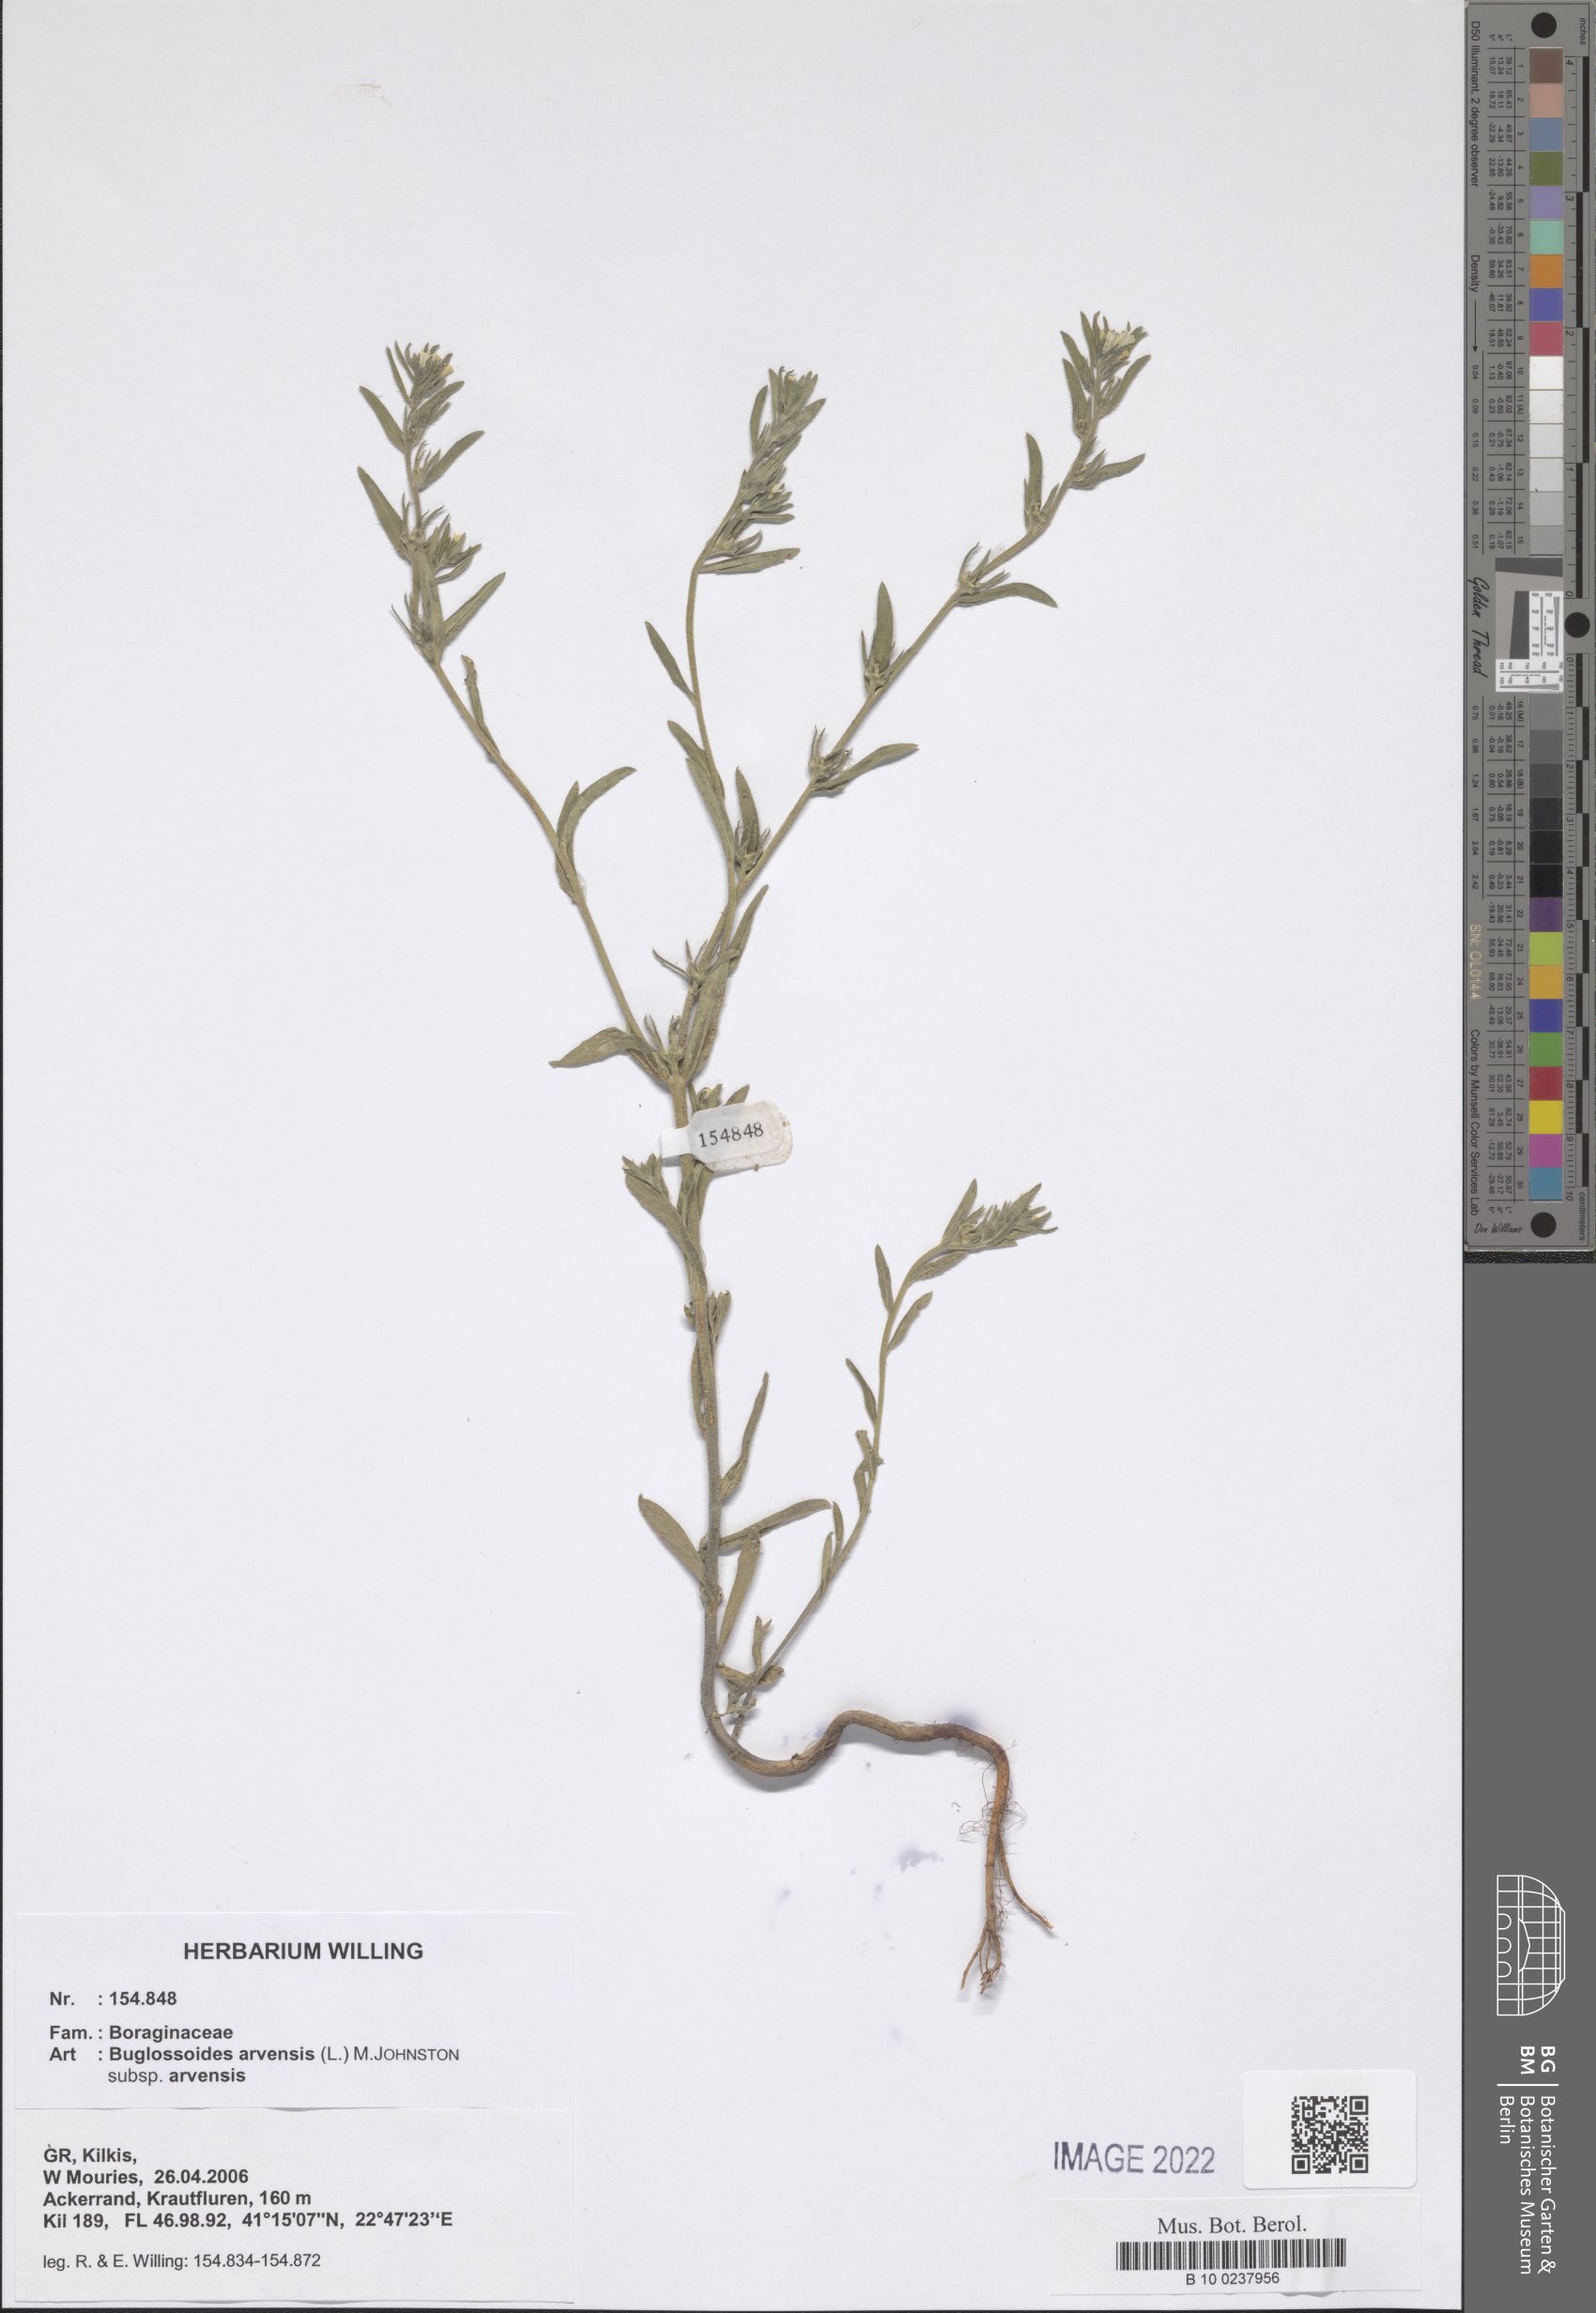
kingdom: Plantae
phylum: Tracheophyta
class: Magnoliopsida
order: Boraginales
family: Boraginaceae
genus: Buglossoides
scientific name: Buglossoides arvensis
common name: Corn gromwell
